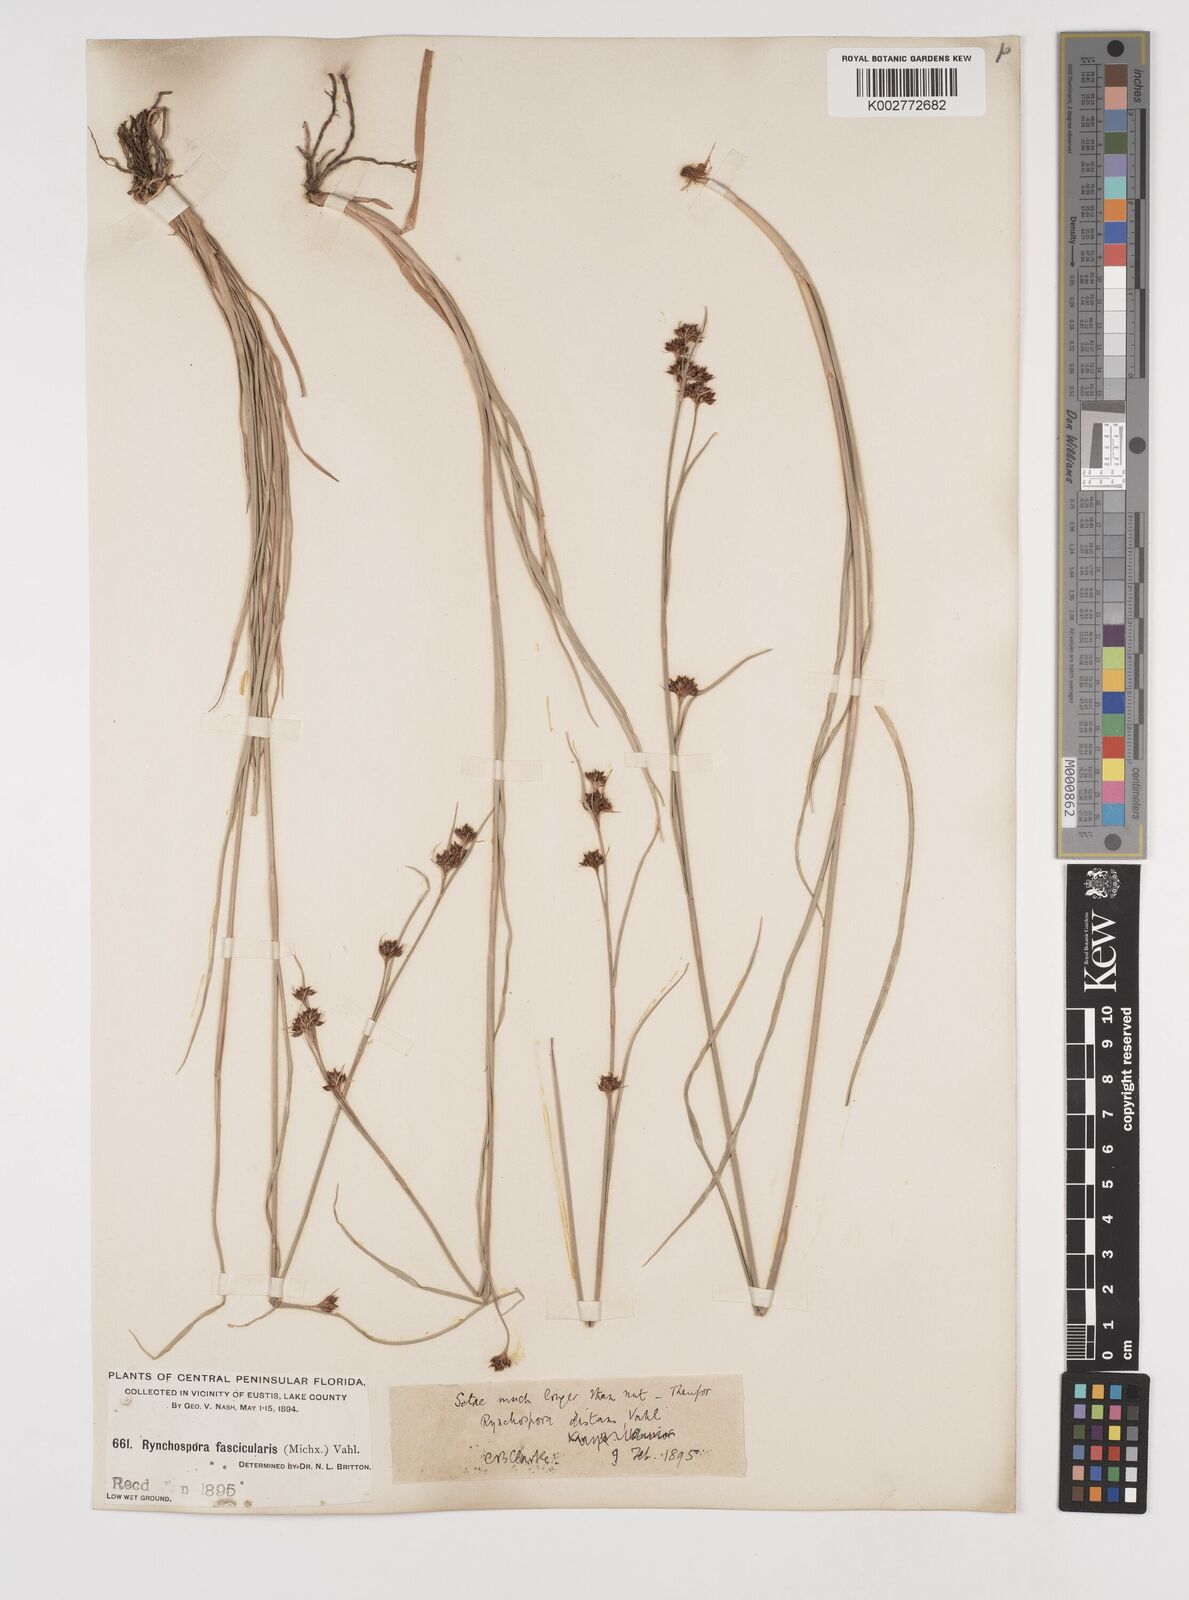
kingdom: Plantae
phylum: Tracheophyta
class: Liliopsida
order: Poales
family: Cyperaceae
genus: Rhynchospora
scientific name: Rhynchospora fascicularis
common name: Fascicled beak sedge
